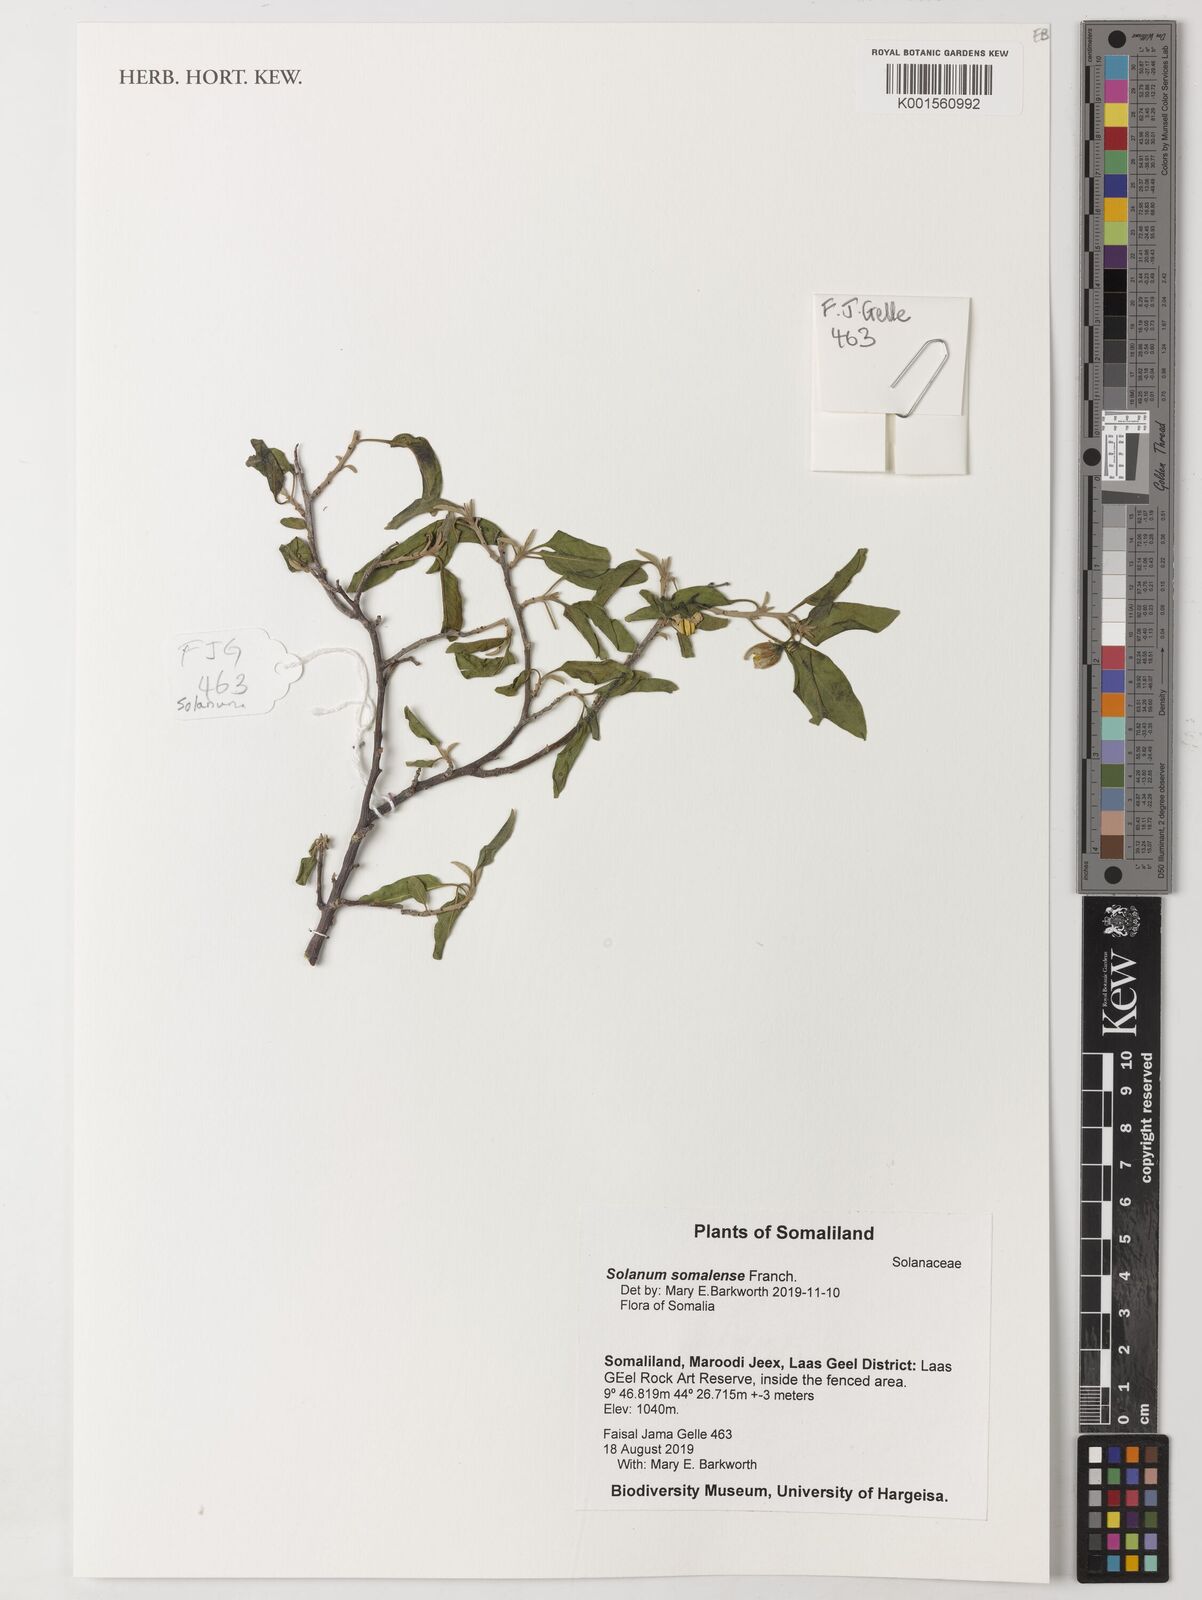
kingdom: Plantae
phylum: Tracheophyta
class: Magnoliopsida
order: Solanales
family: Solanaceae
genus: Solanum
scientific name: Solanum somalense
